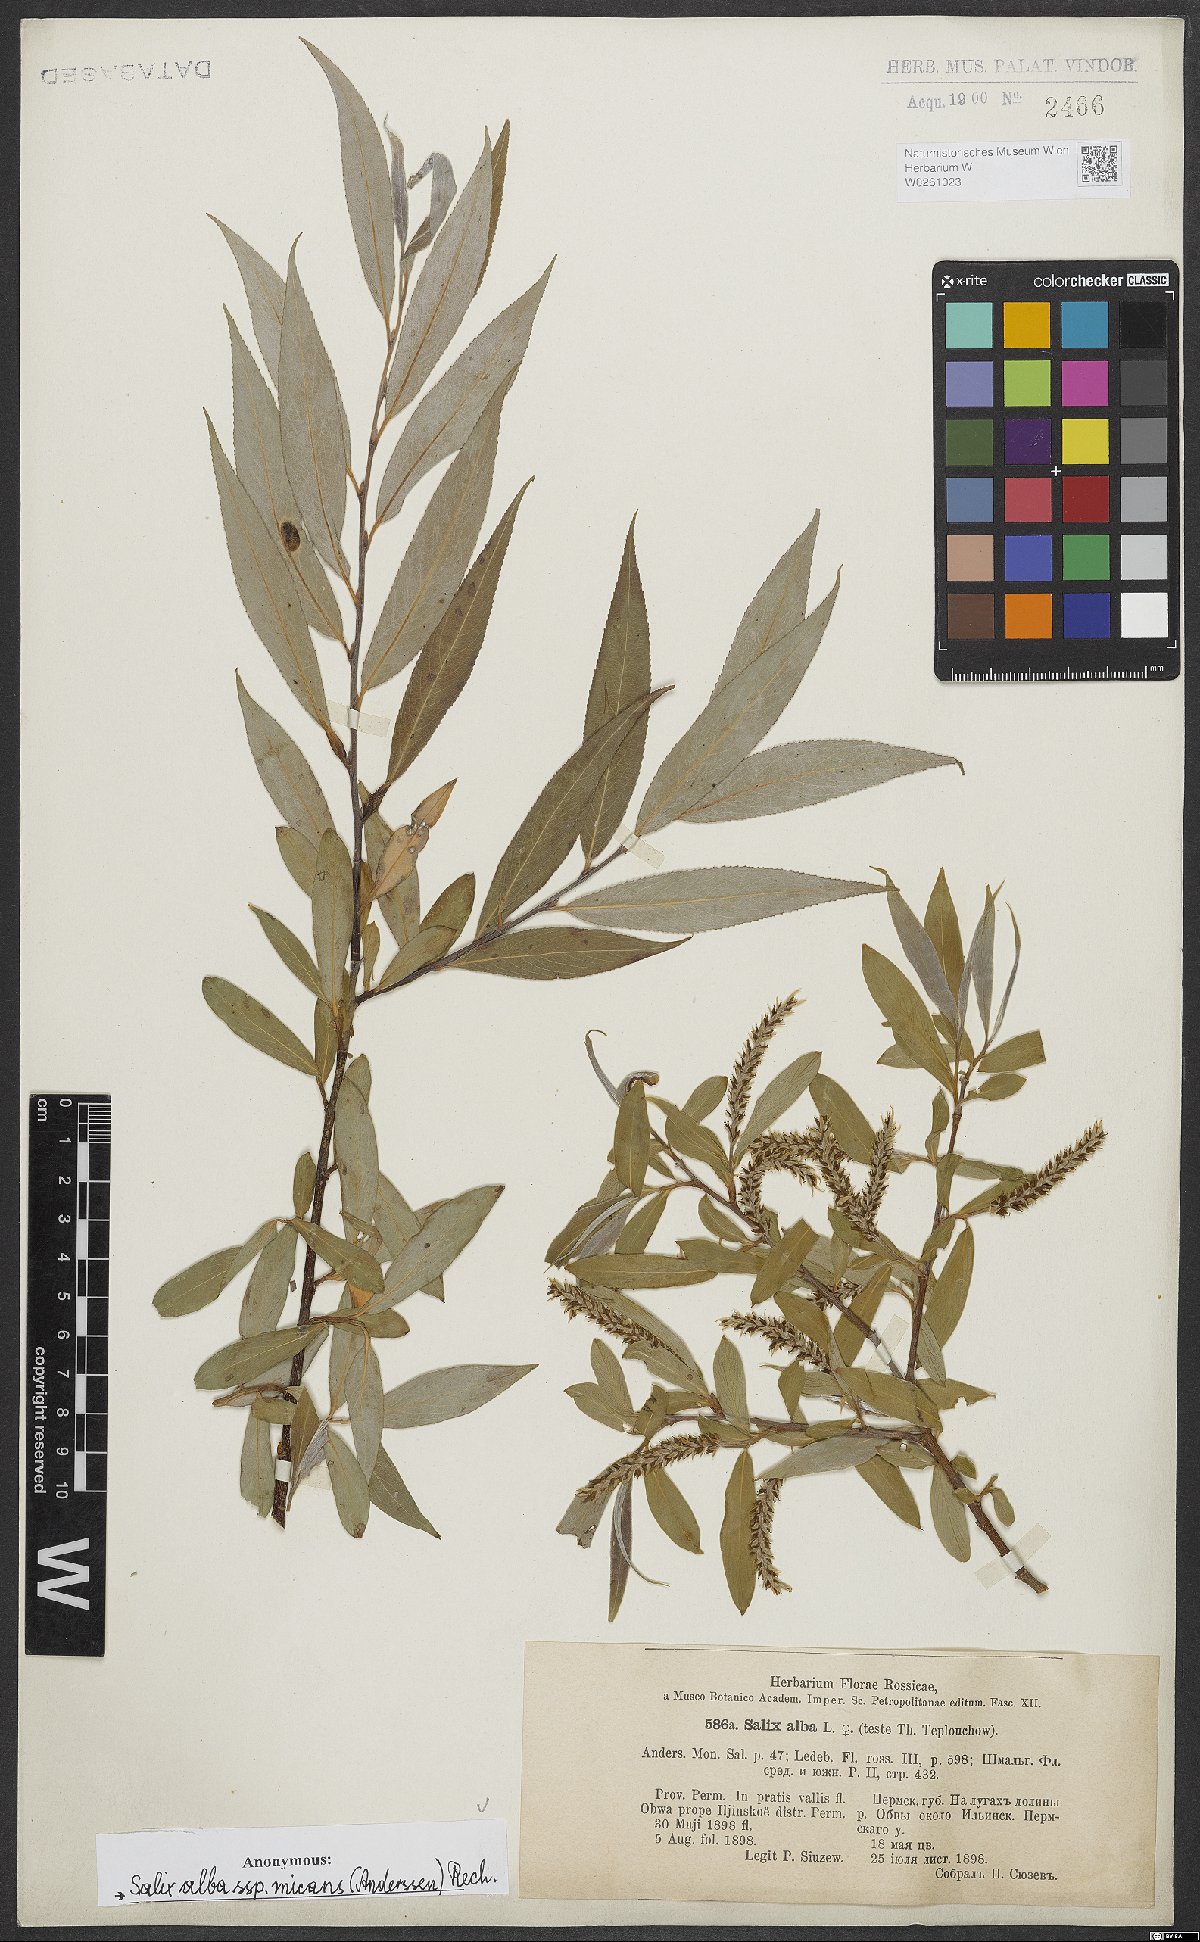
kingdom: Plantae
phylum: Tracheophyta
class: Magnoliopsida
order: Malpighiales
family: Salicaceae
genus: Salix
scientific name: Salix alba
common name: White willow
